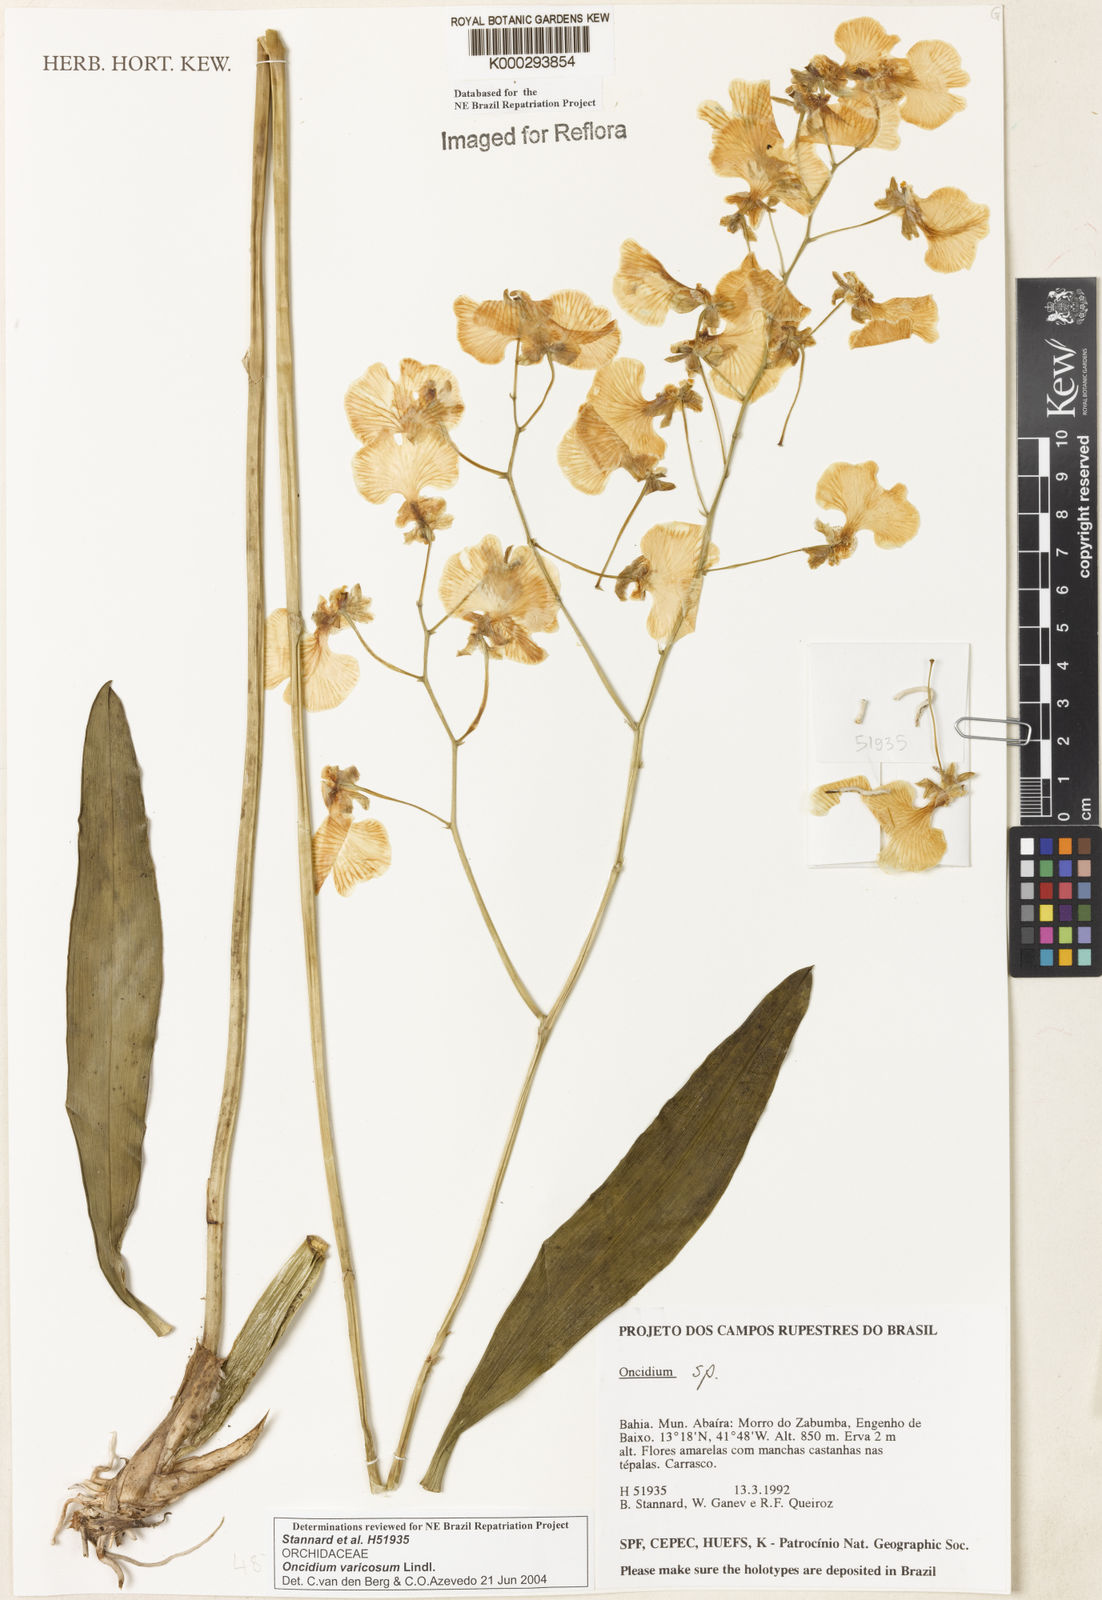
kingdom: Plantae
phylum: Tracheophyta
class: Liliopsida
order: Asparagales
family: Orchidaceae
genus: Gomesa
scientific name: Gomesa varicosa
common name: Dancing ladies
